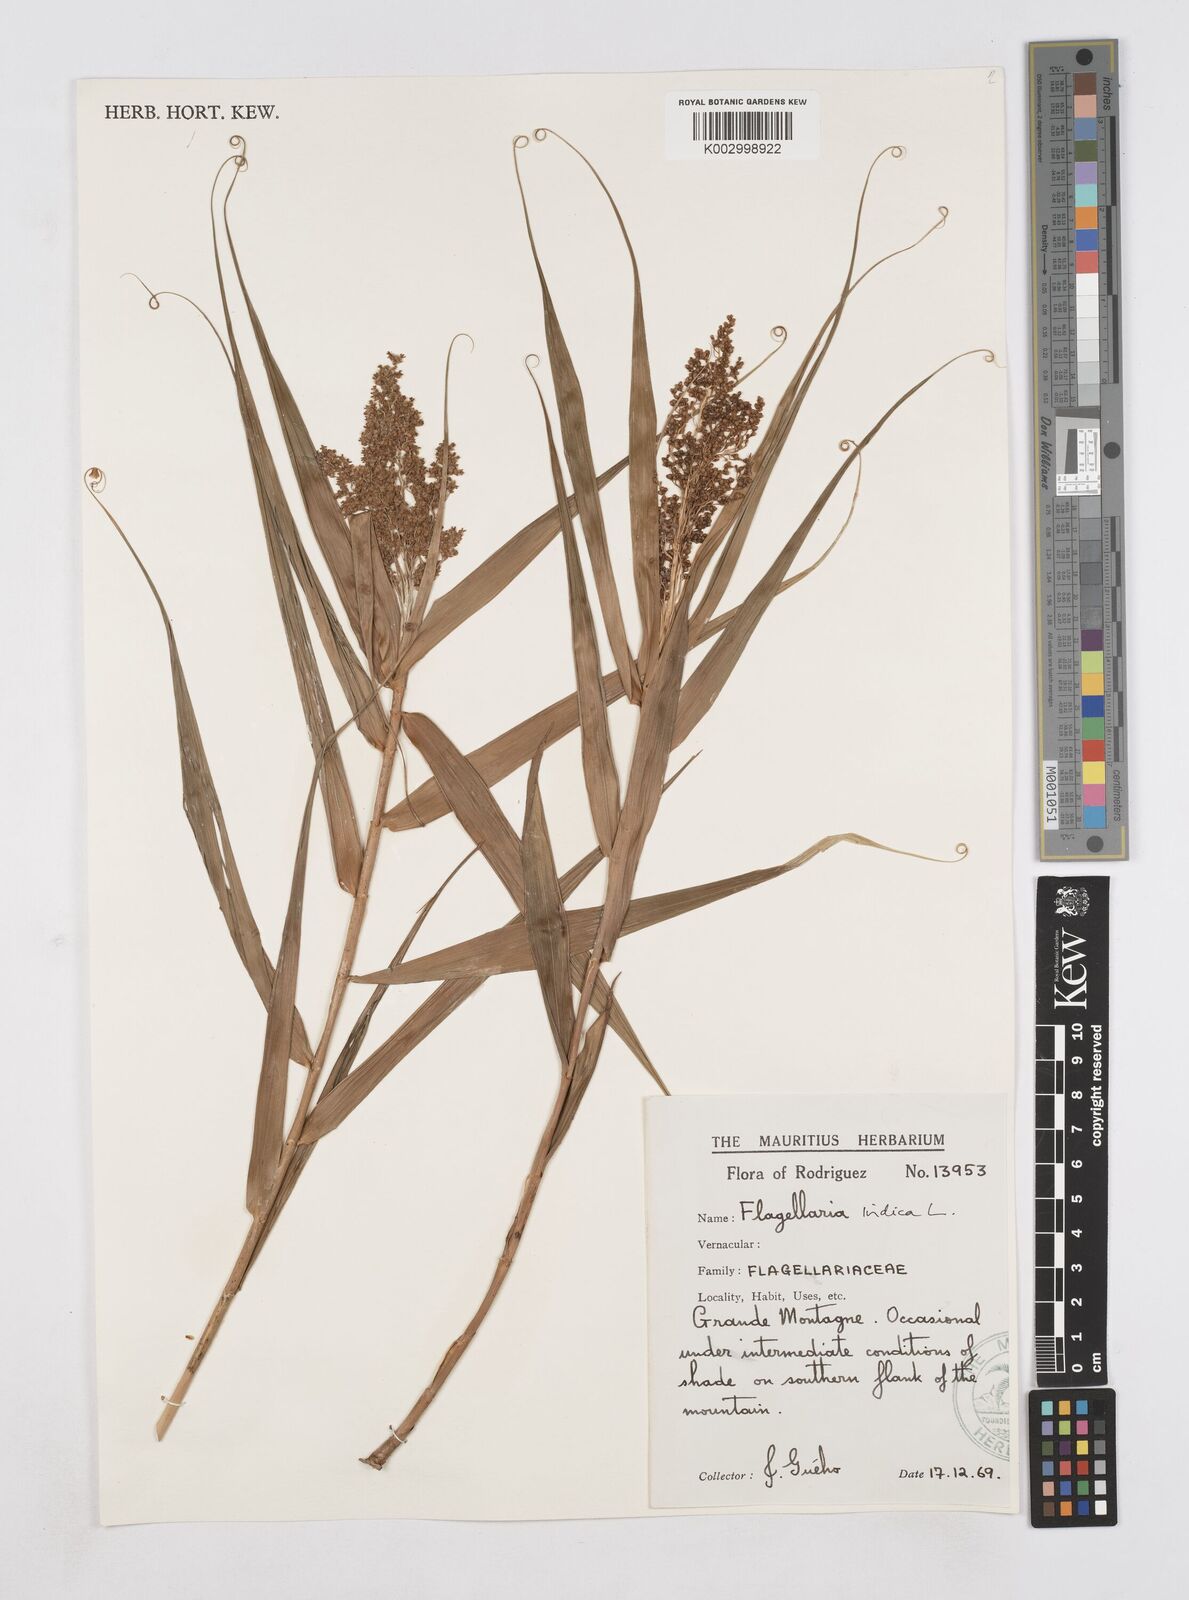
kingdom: Plantae
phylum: Tracheophyta
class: Liliopsida
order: Poales
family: Flagellariaceae
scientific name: Flagellariaceae
